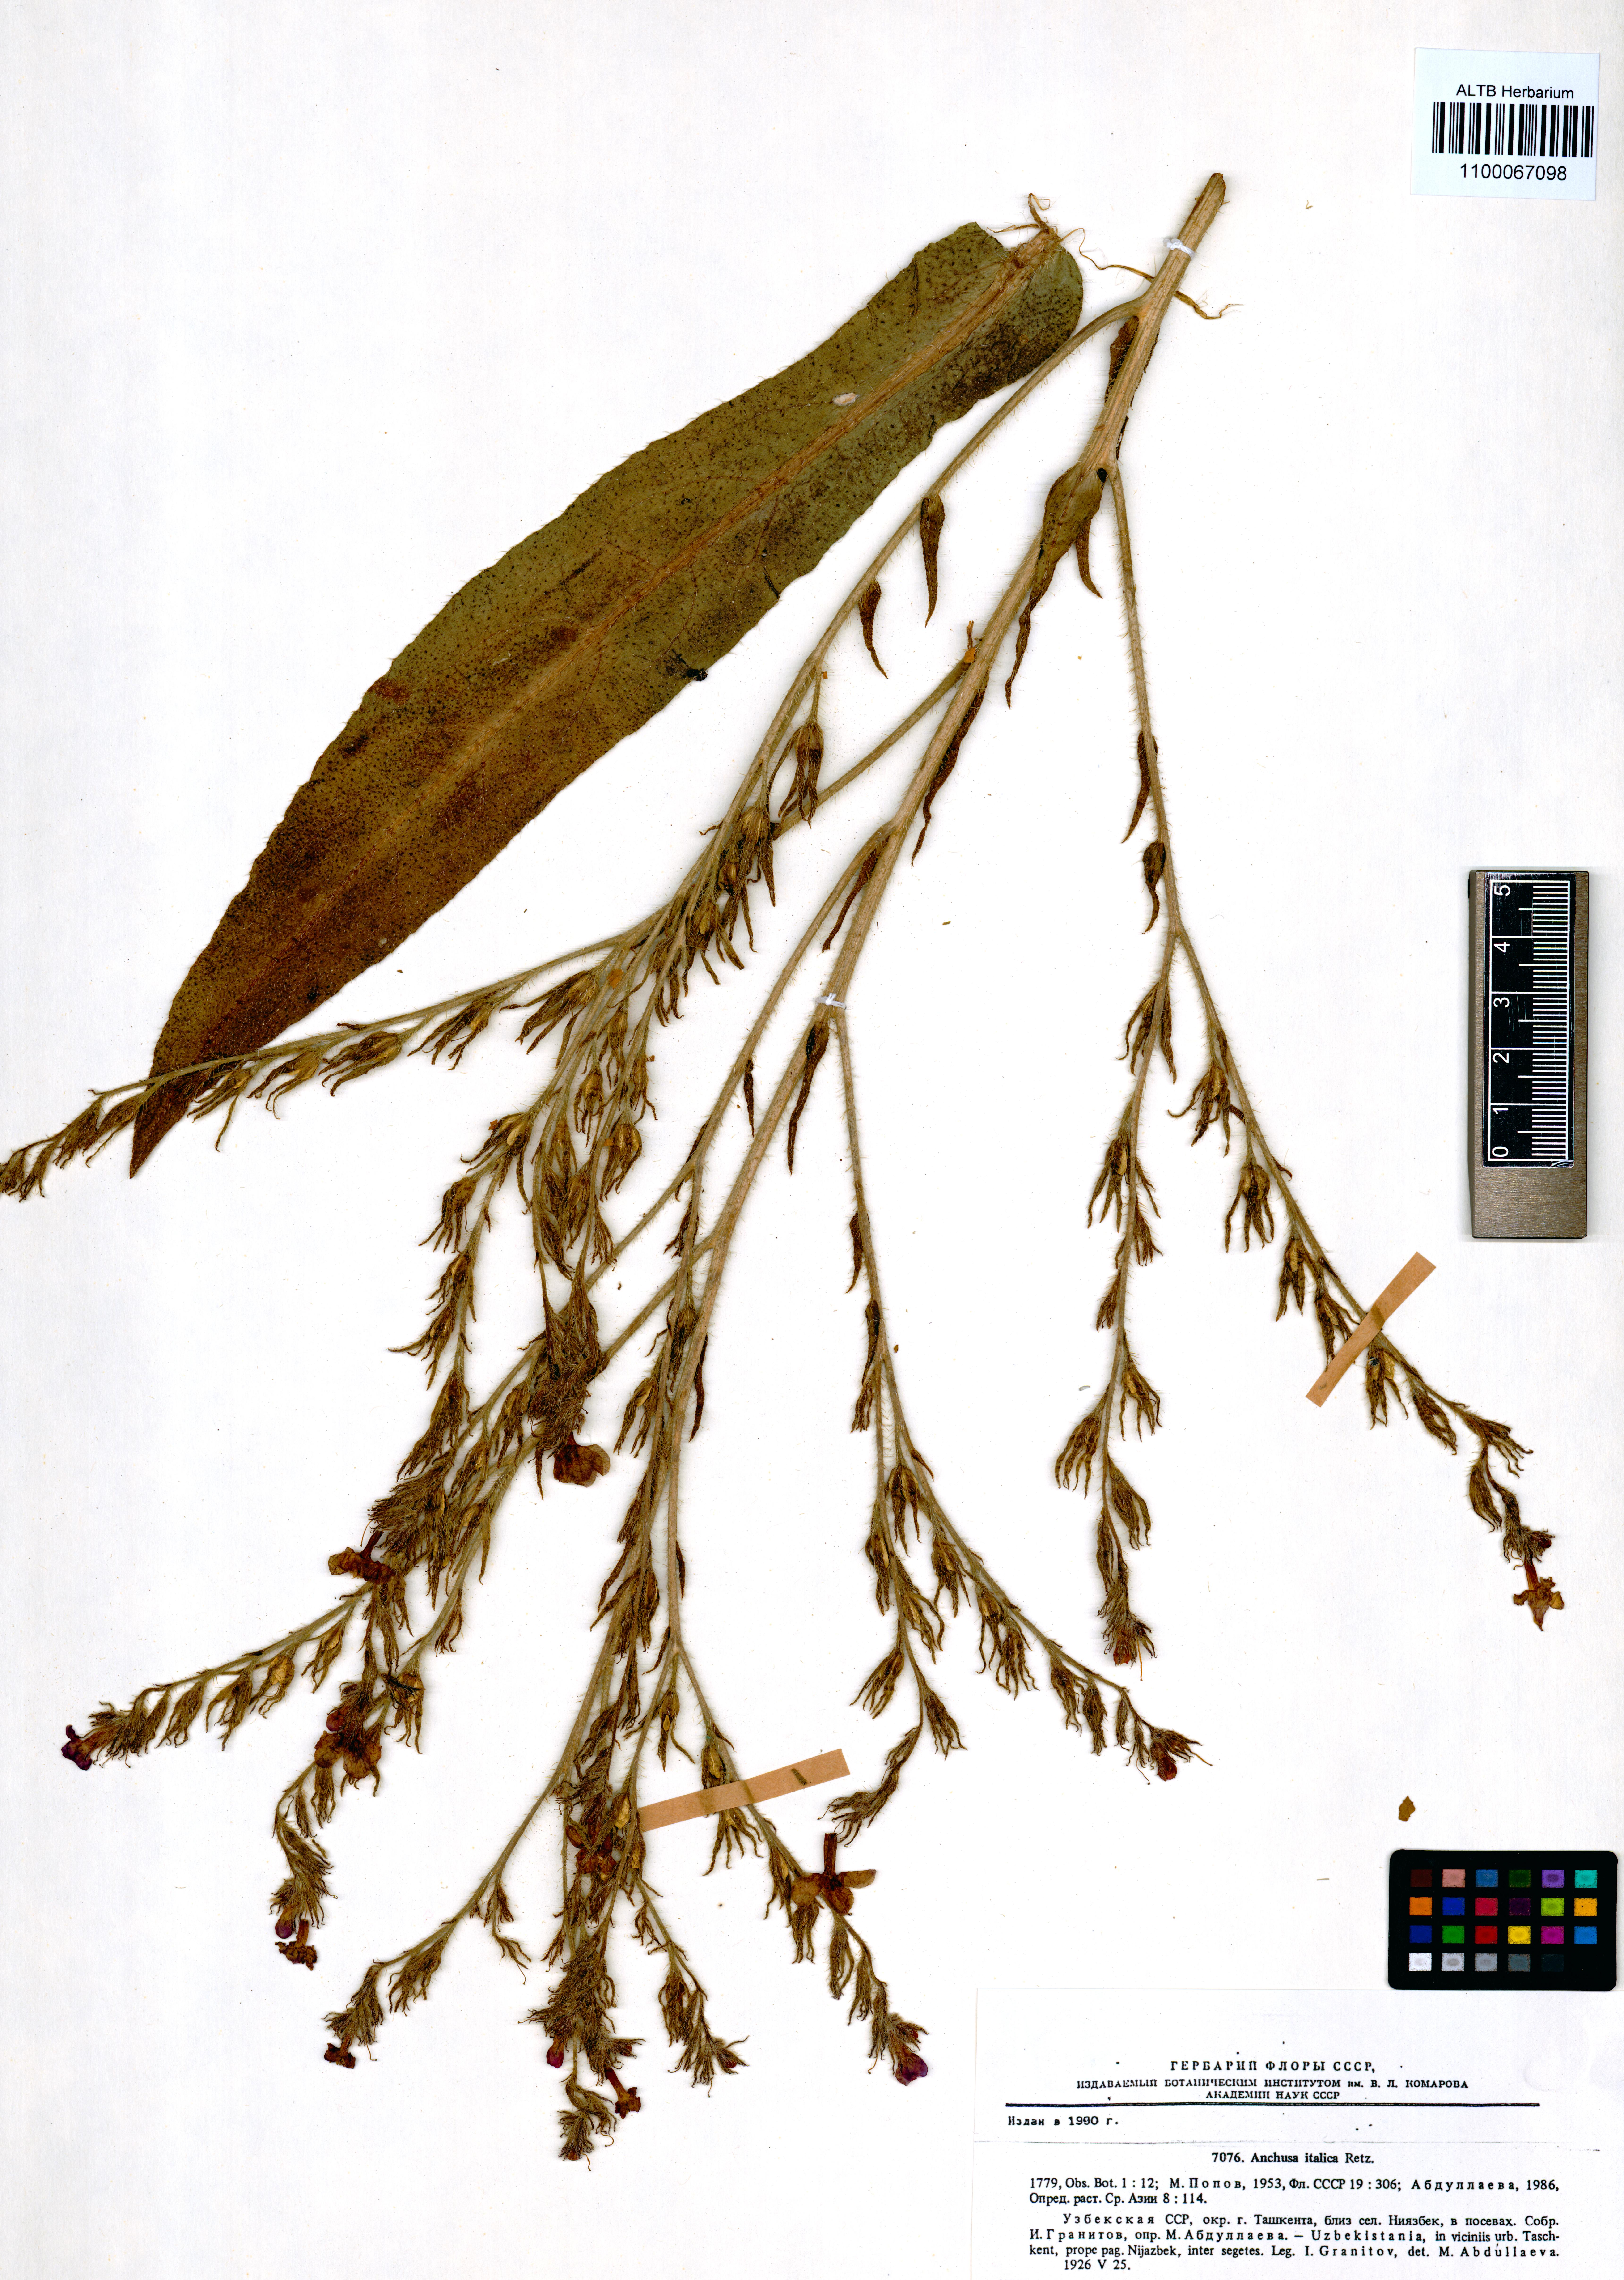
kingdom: Plantae
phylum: Tracheophyta
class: Magnoliopsida
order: Boraginales
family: Boraginaceae
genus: Anchusa
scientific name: Anchusa azurea
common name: Garden anchusa
